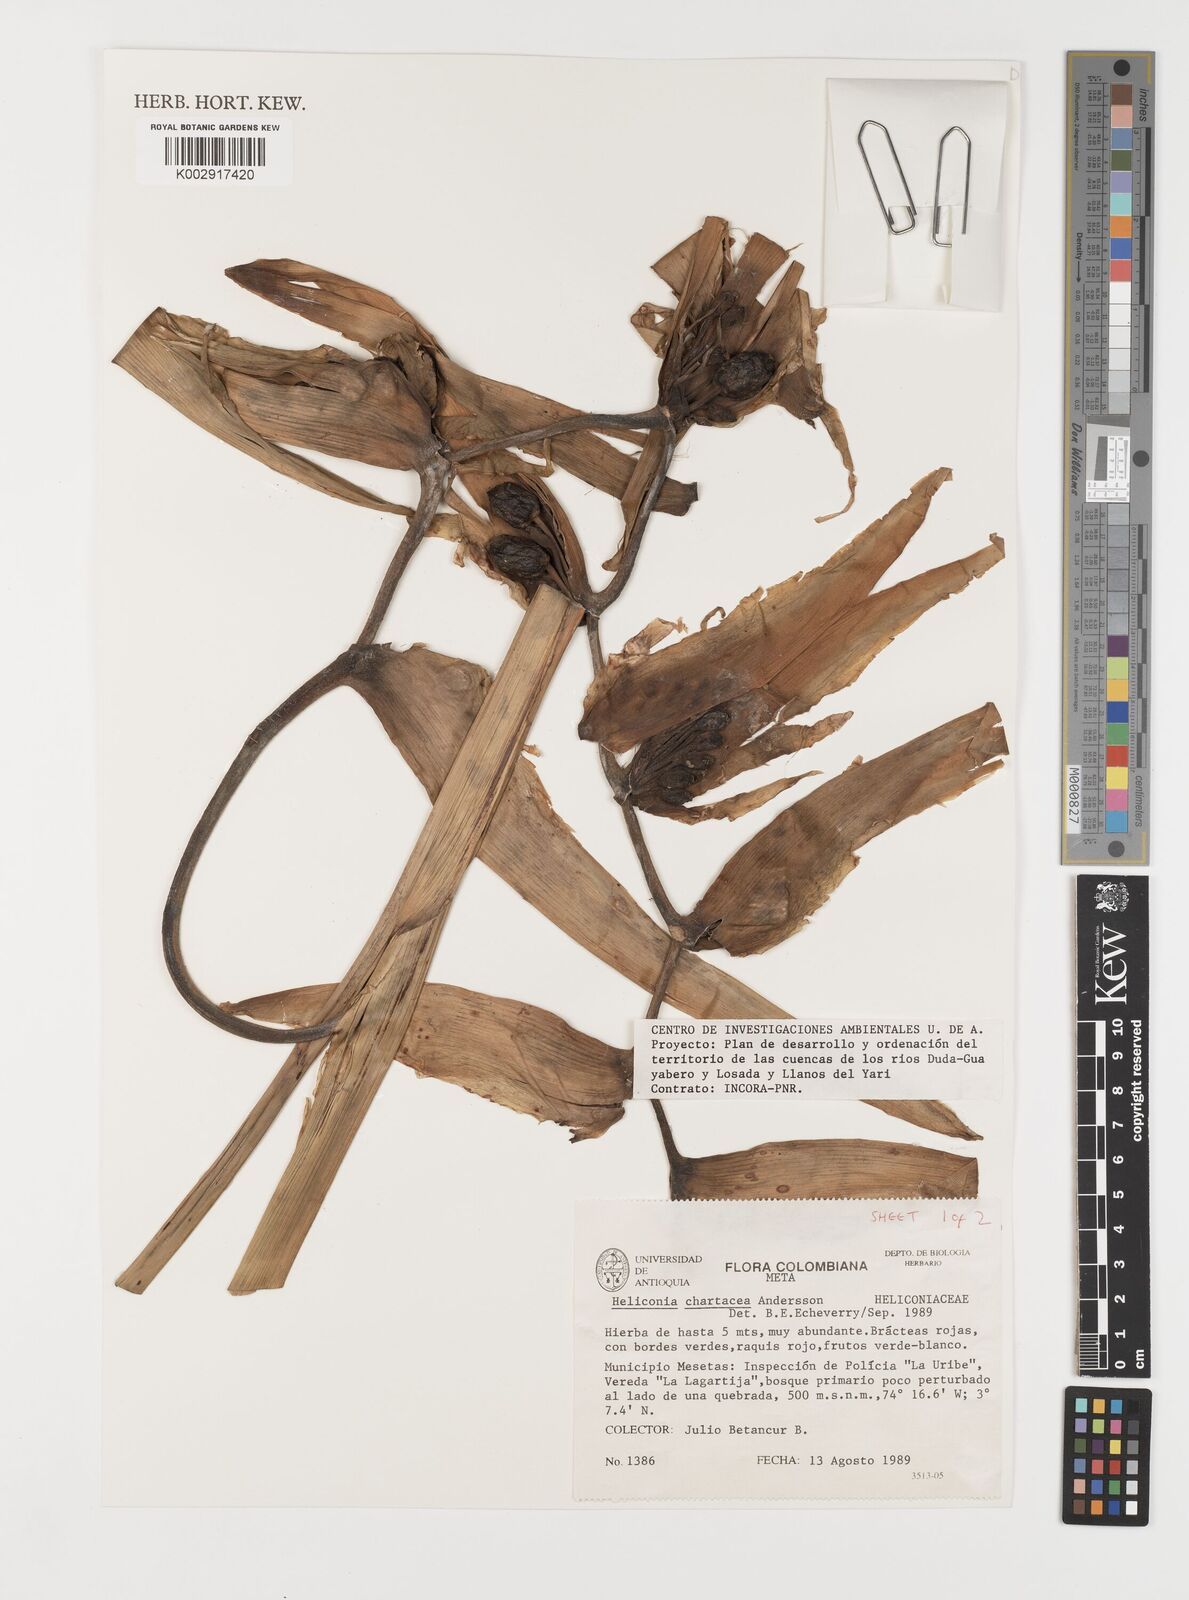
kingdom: Plantae
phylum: Tracheophyta
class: Liliopsida
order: Zingiberales
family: Heliconiaceae
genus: Heliconia
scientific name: Heliconia chartacea
